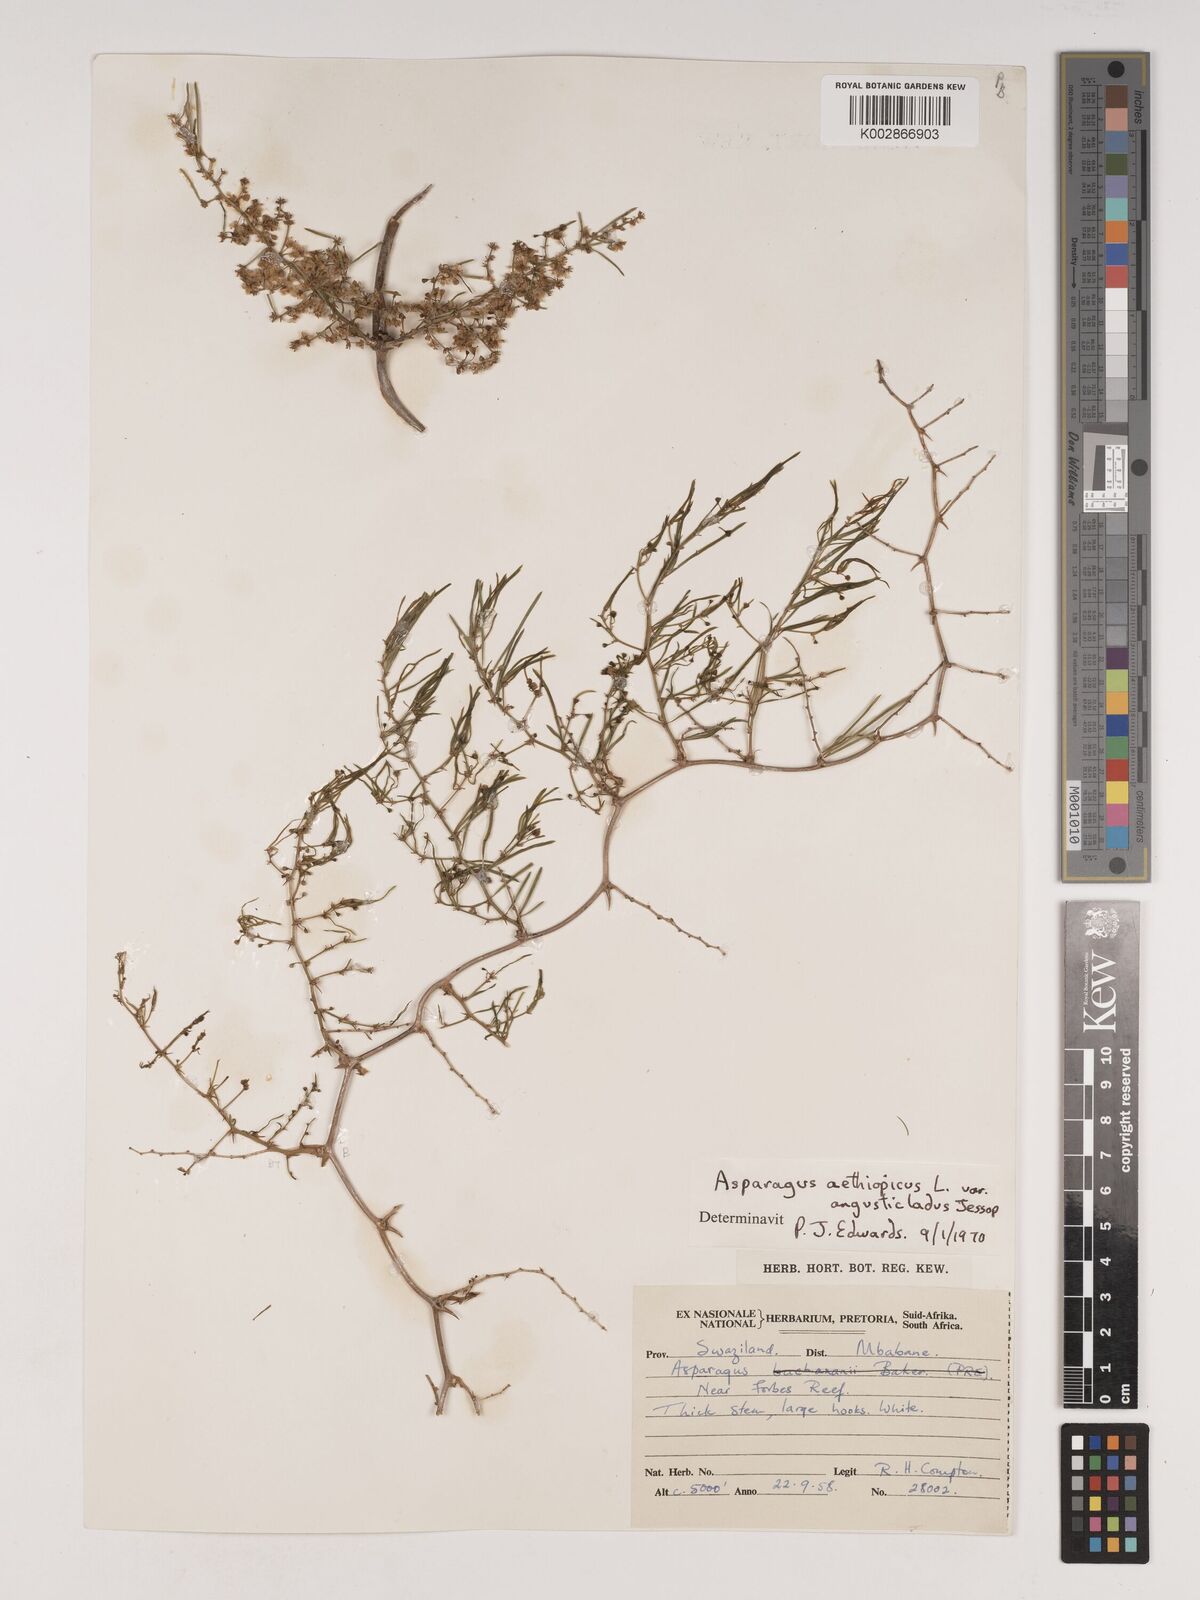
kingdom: Plantae
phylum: Tracheophyta
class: Liliopsida
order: Asparagales
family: Asparagaceae
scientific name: Asparagaceae
